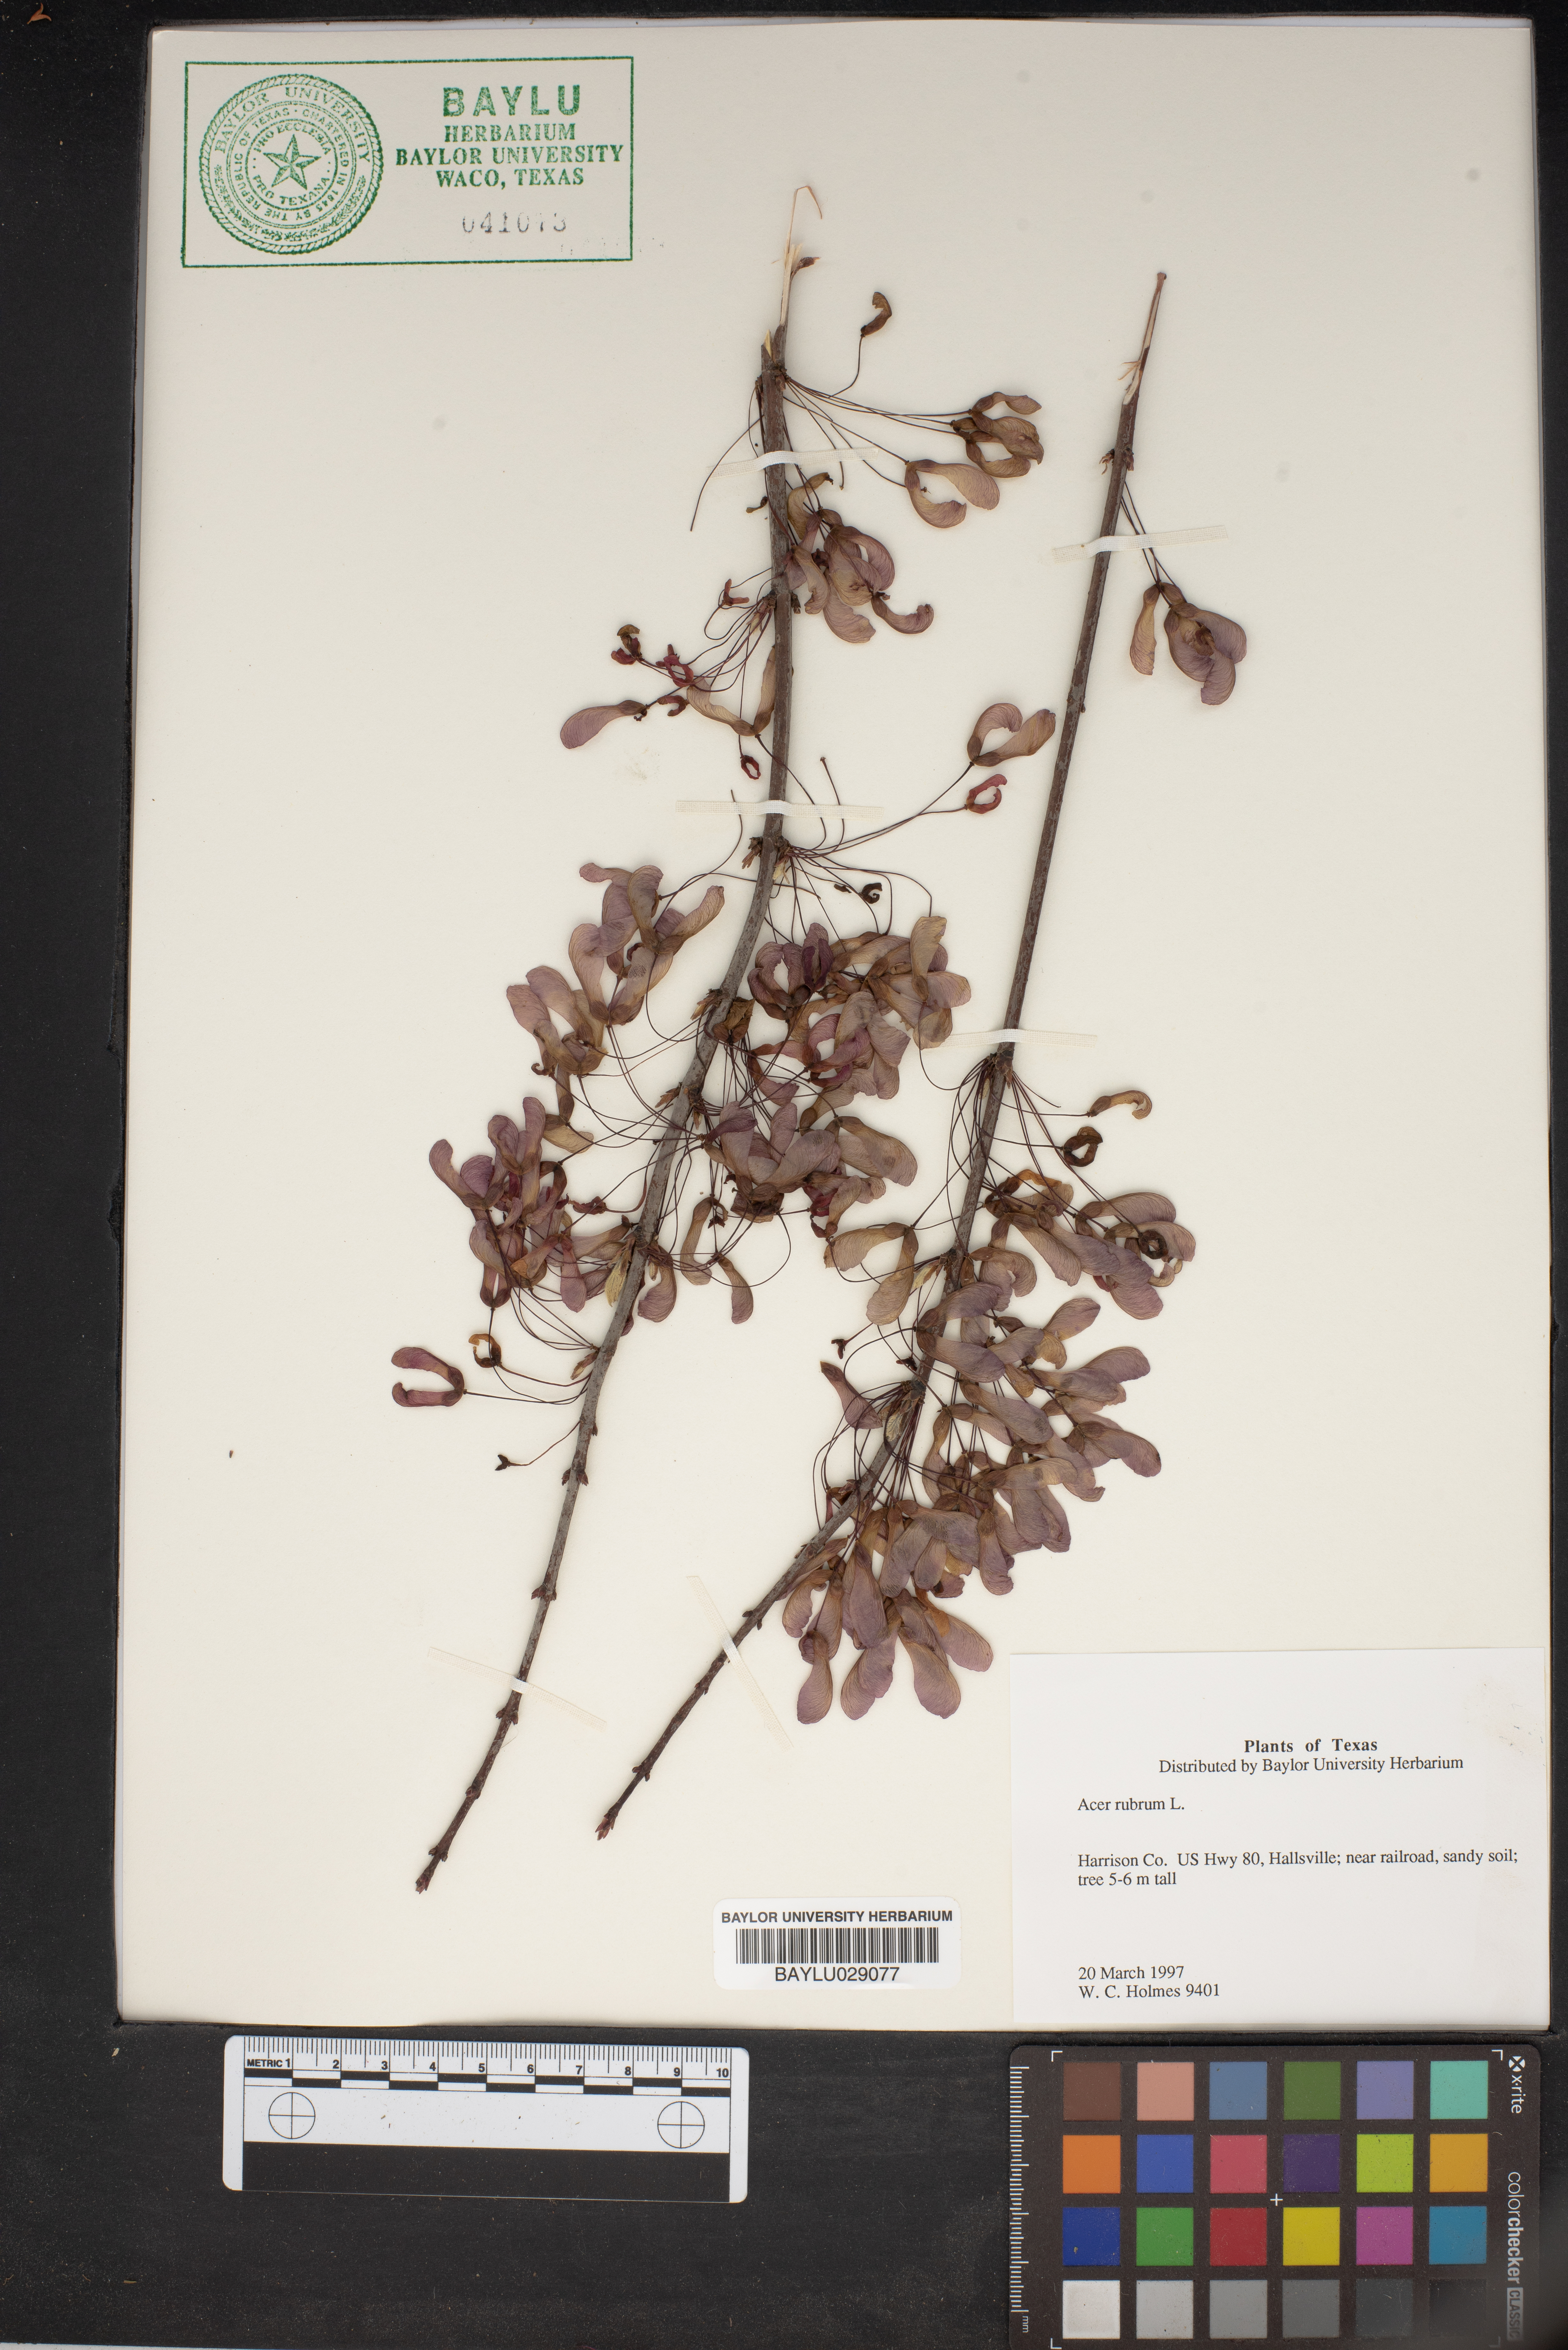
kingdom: Plantae
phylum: Tracheophyta
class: Magnoliopsida
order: Sapindales
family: Sapindaceae
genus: Acer
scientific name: Acer rubrum
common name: Red maple
